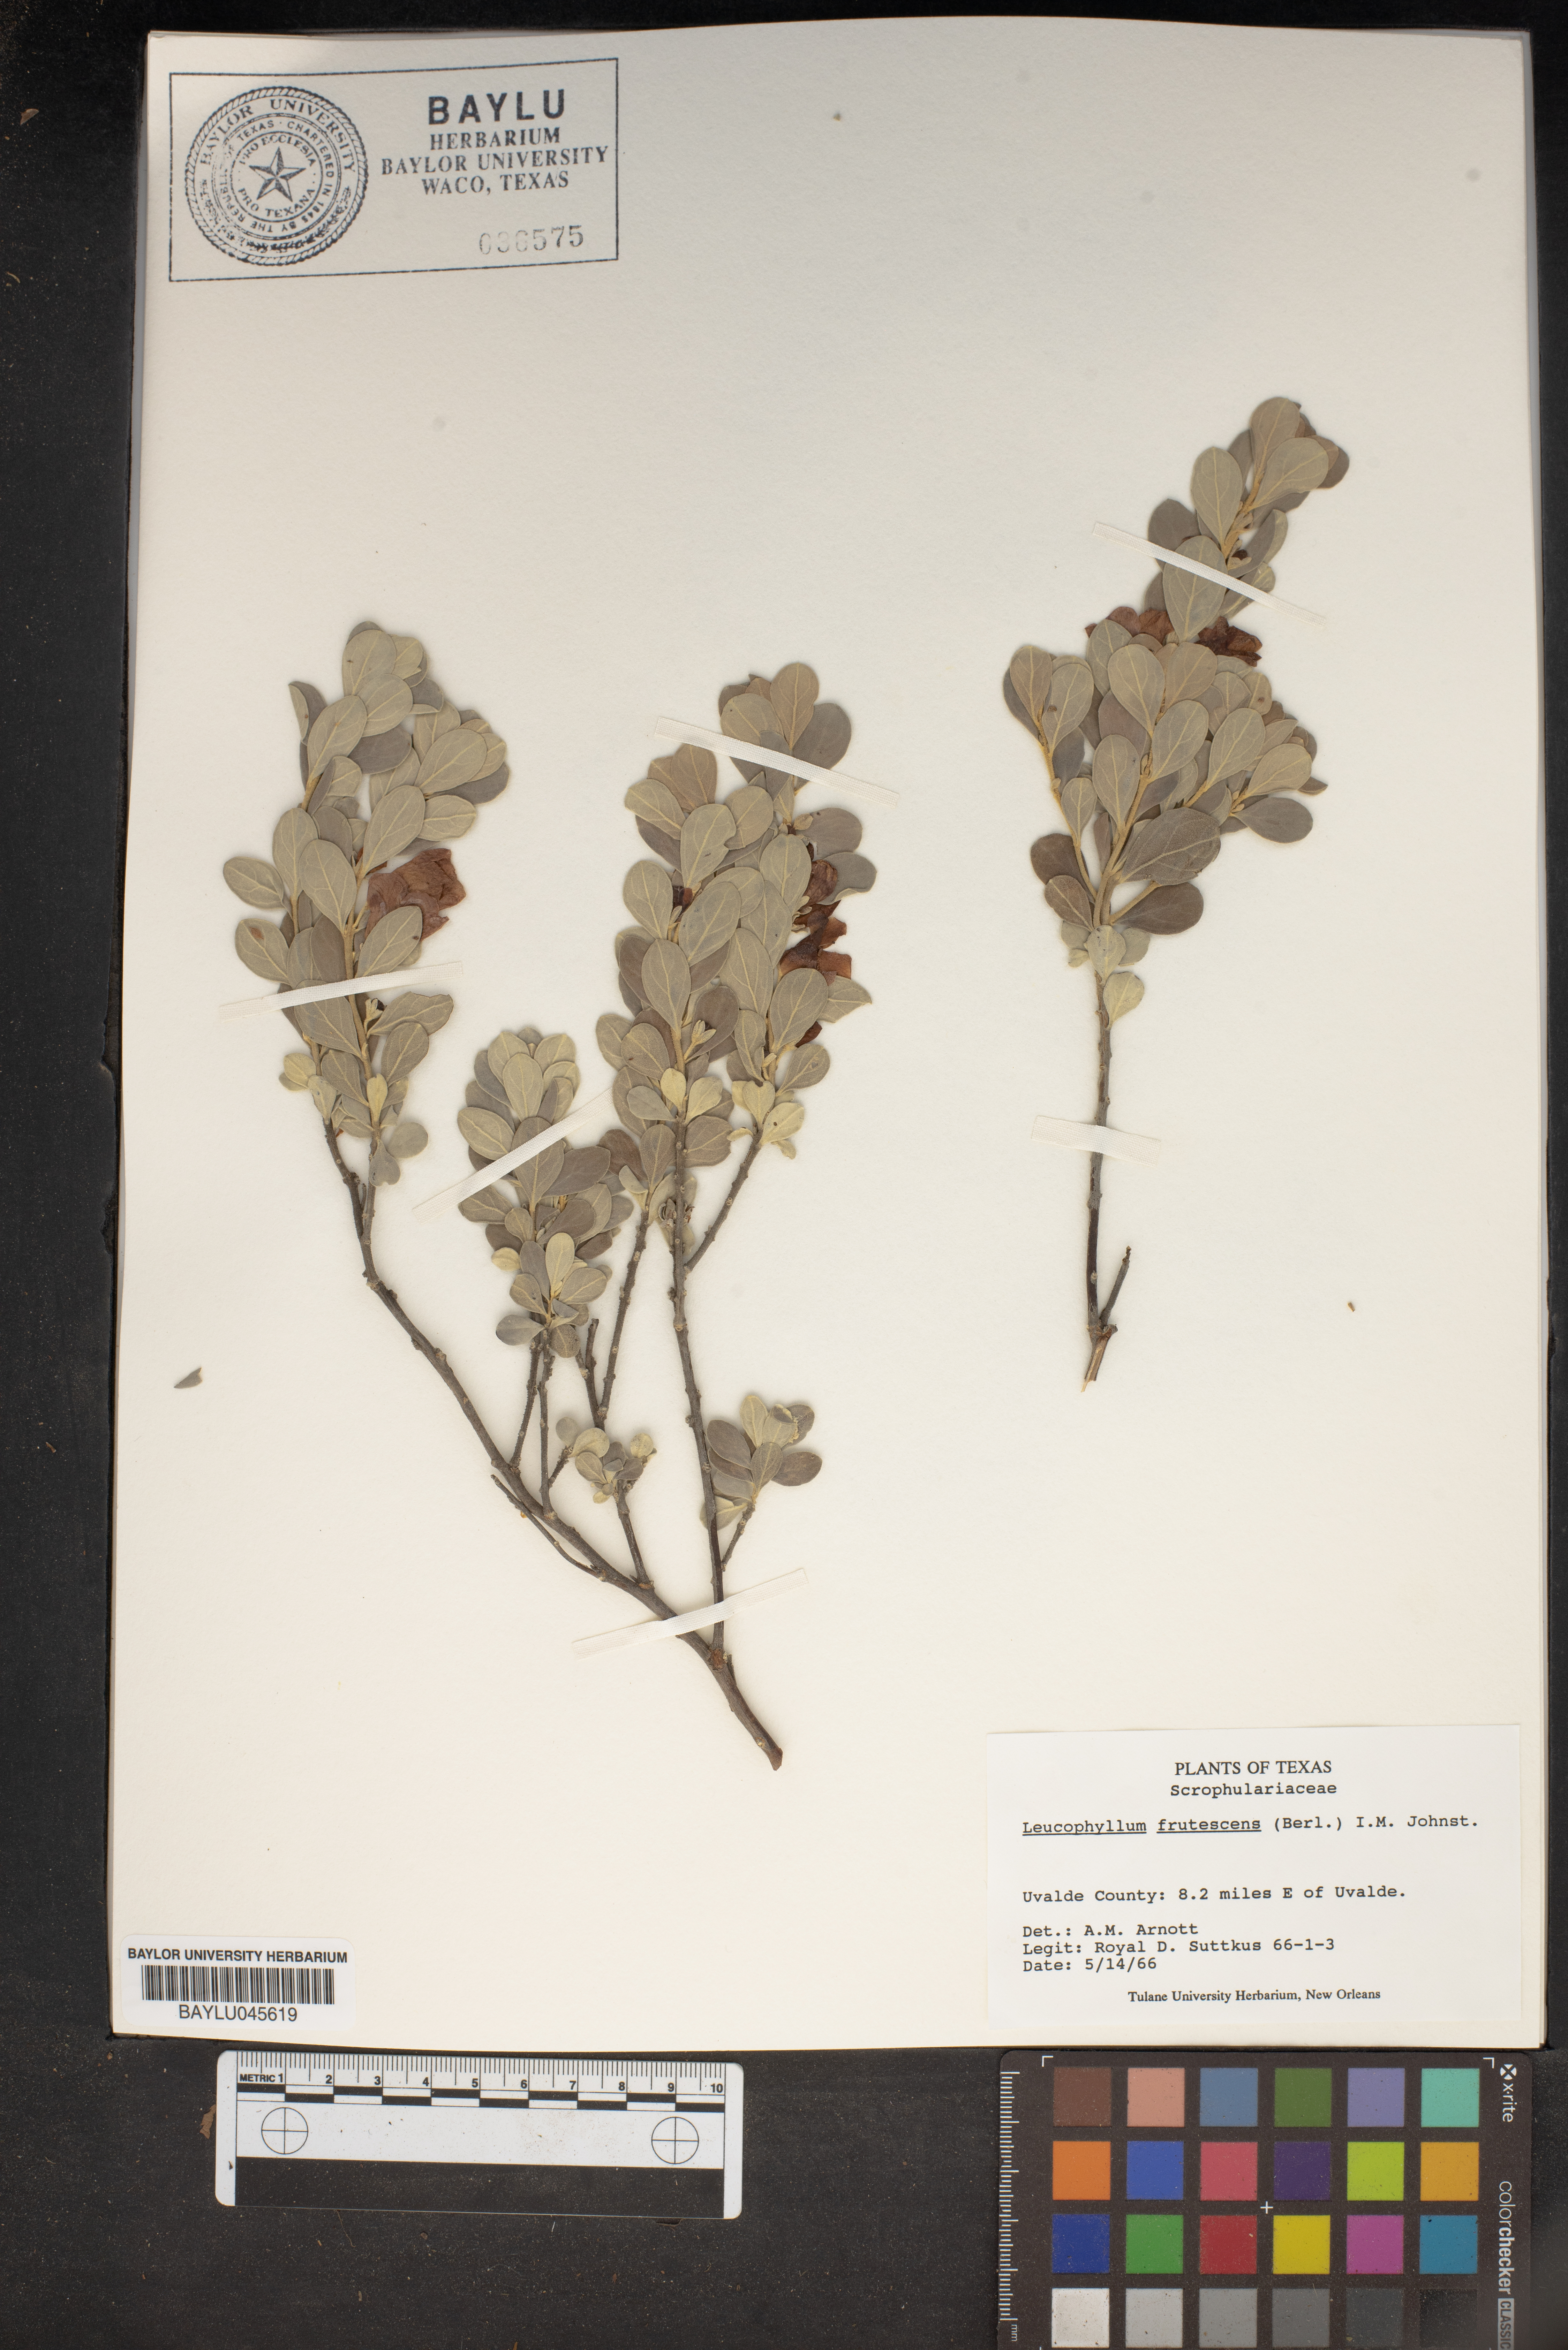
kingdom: Plantae
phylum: Tracheophyta
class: Magnoliopsida
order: Lamiales
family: Scrophulariaceae
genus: Leucophyllum
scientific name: Leucophyllum frutescens
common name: Texas silverleaf
